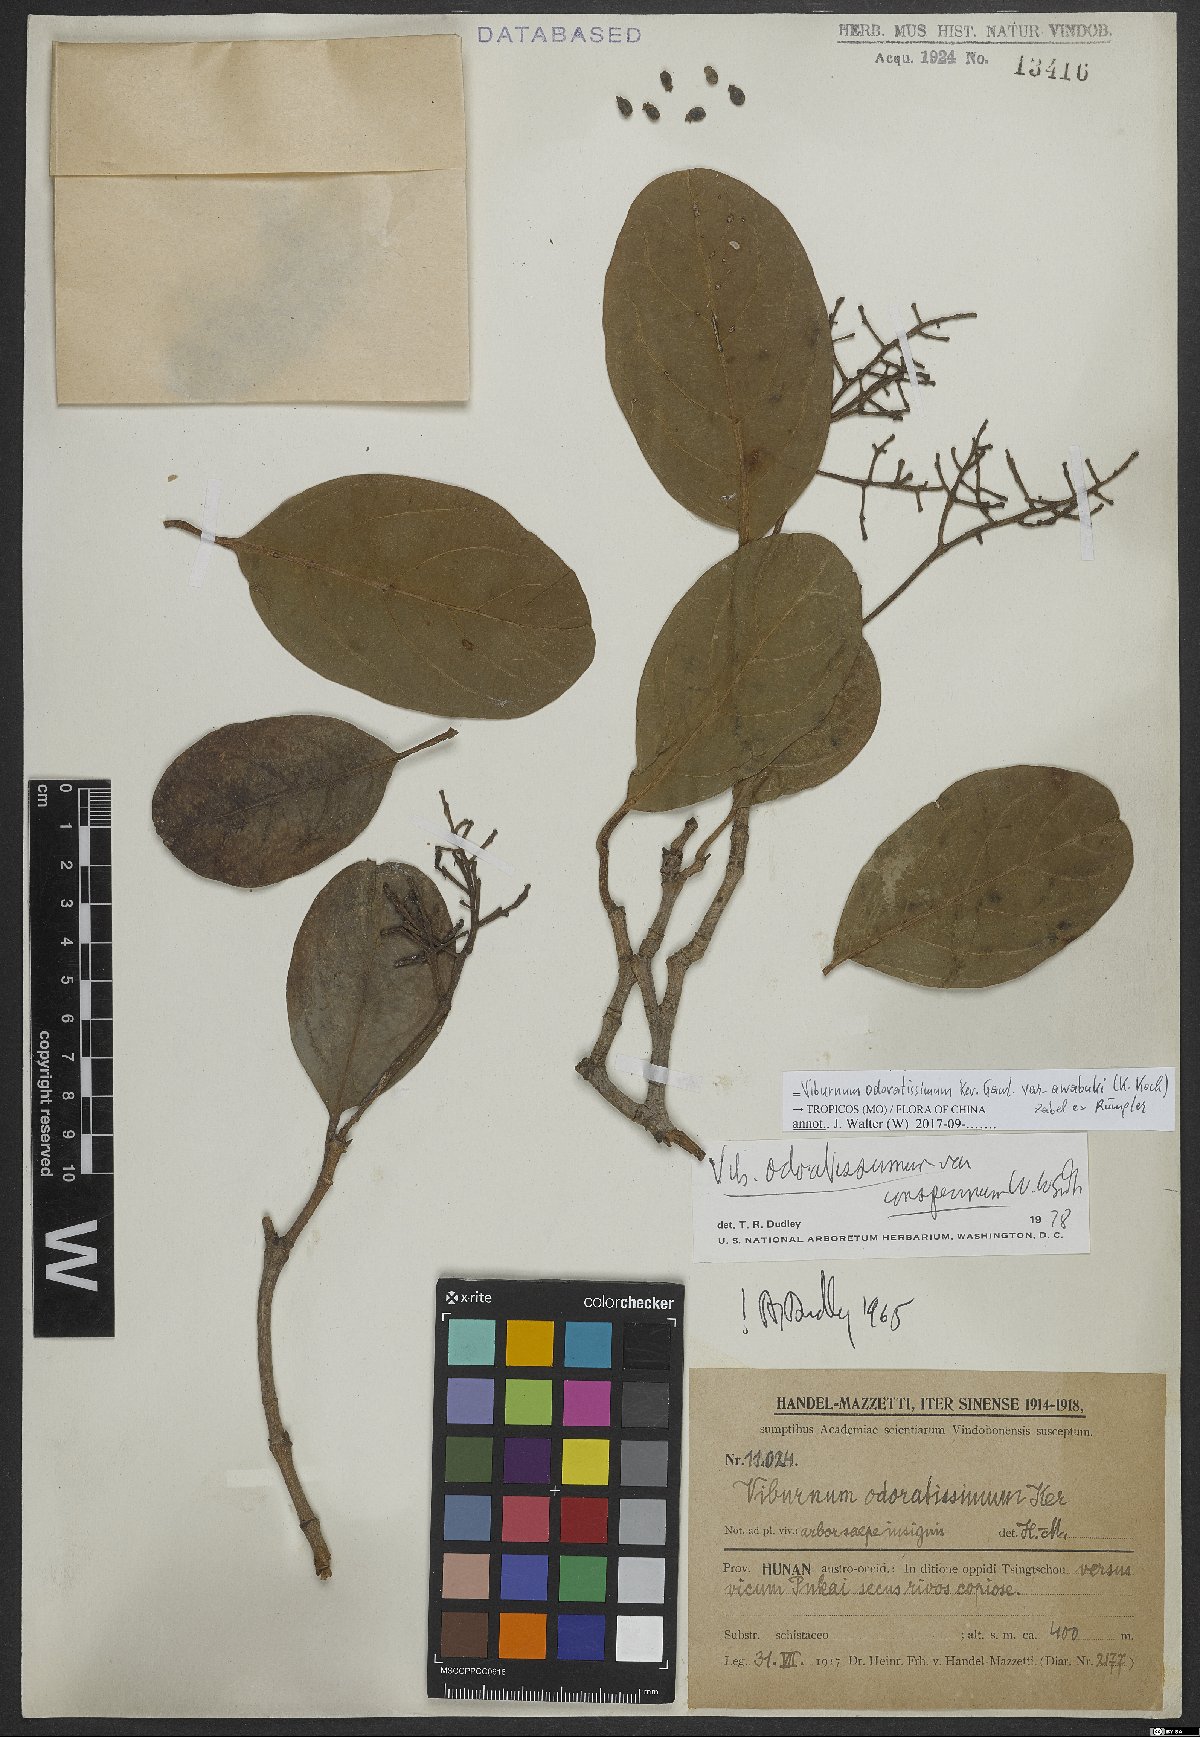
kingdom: Plantae
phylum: Tracheophyta
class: Magnoliopsida
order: Dipsacales
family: Viburnaceae
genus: Viburnum
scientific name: Viburnum odoratissimum
